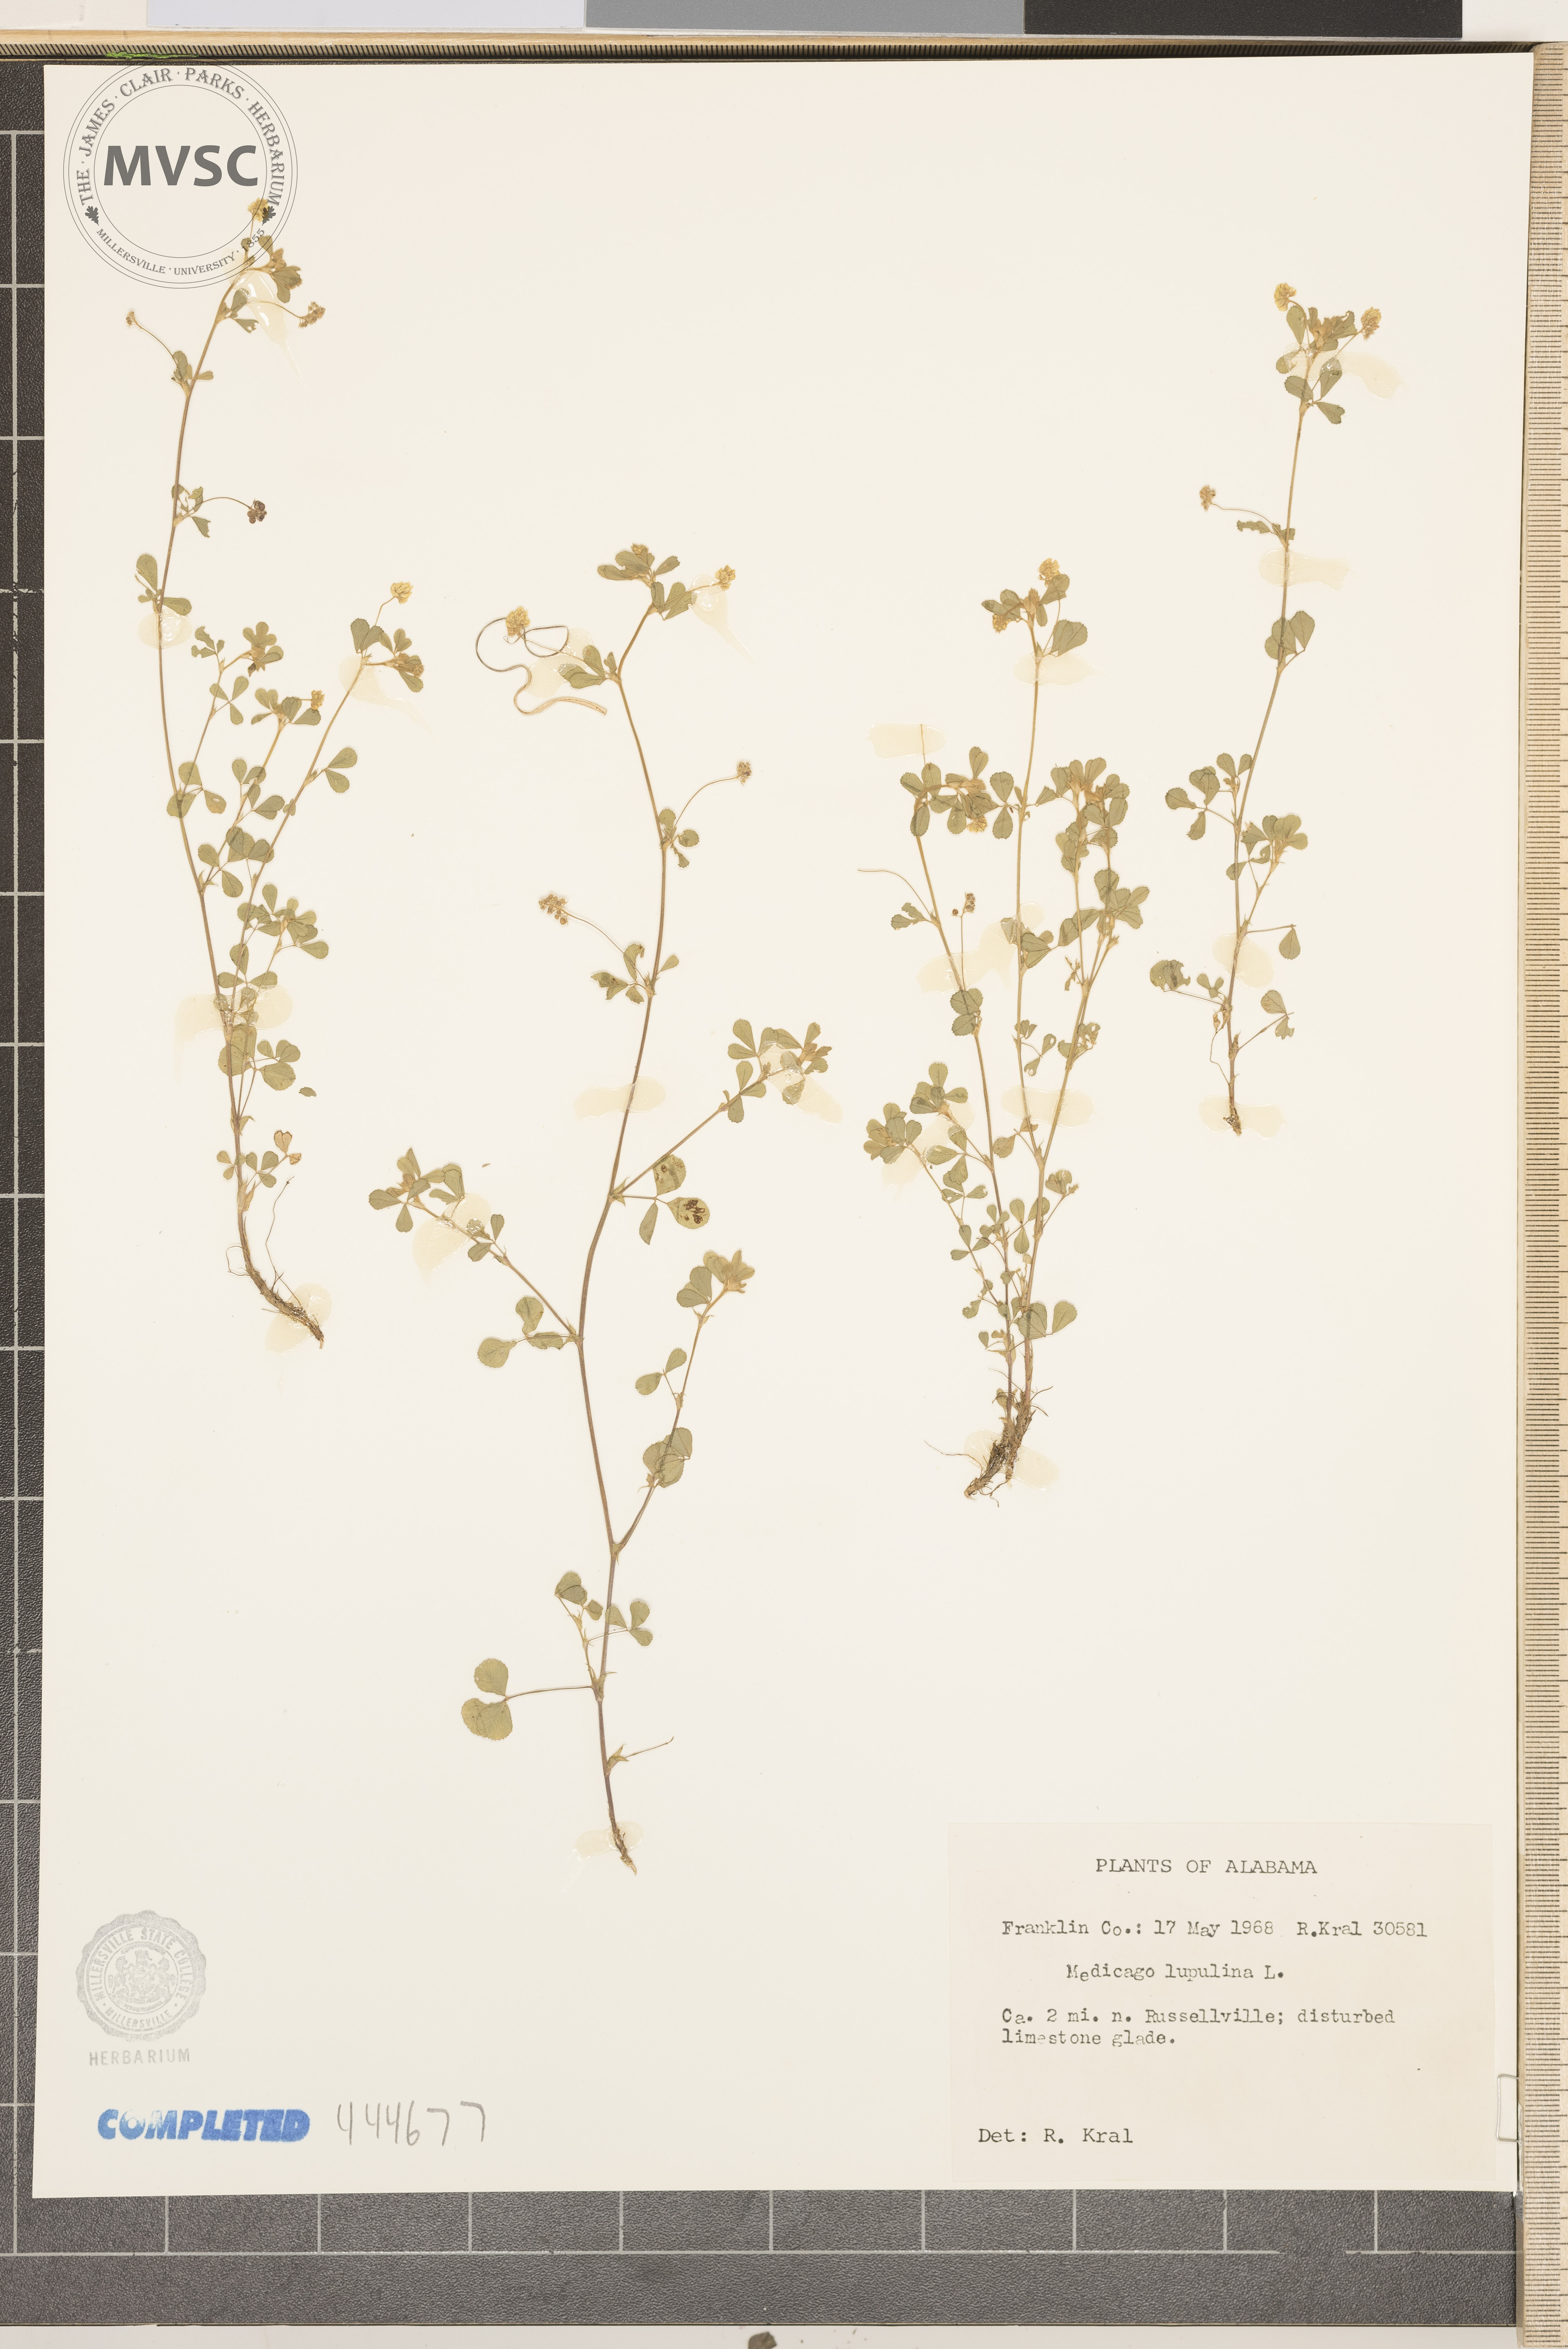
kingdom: Plantae
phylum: Tracheophyta
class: Magnoliopsida
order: Fabales
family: Fabaceae
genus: Medicago
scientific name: Medicago lupulina
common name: Black medick
